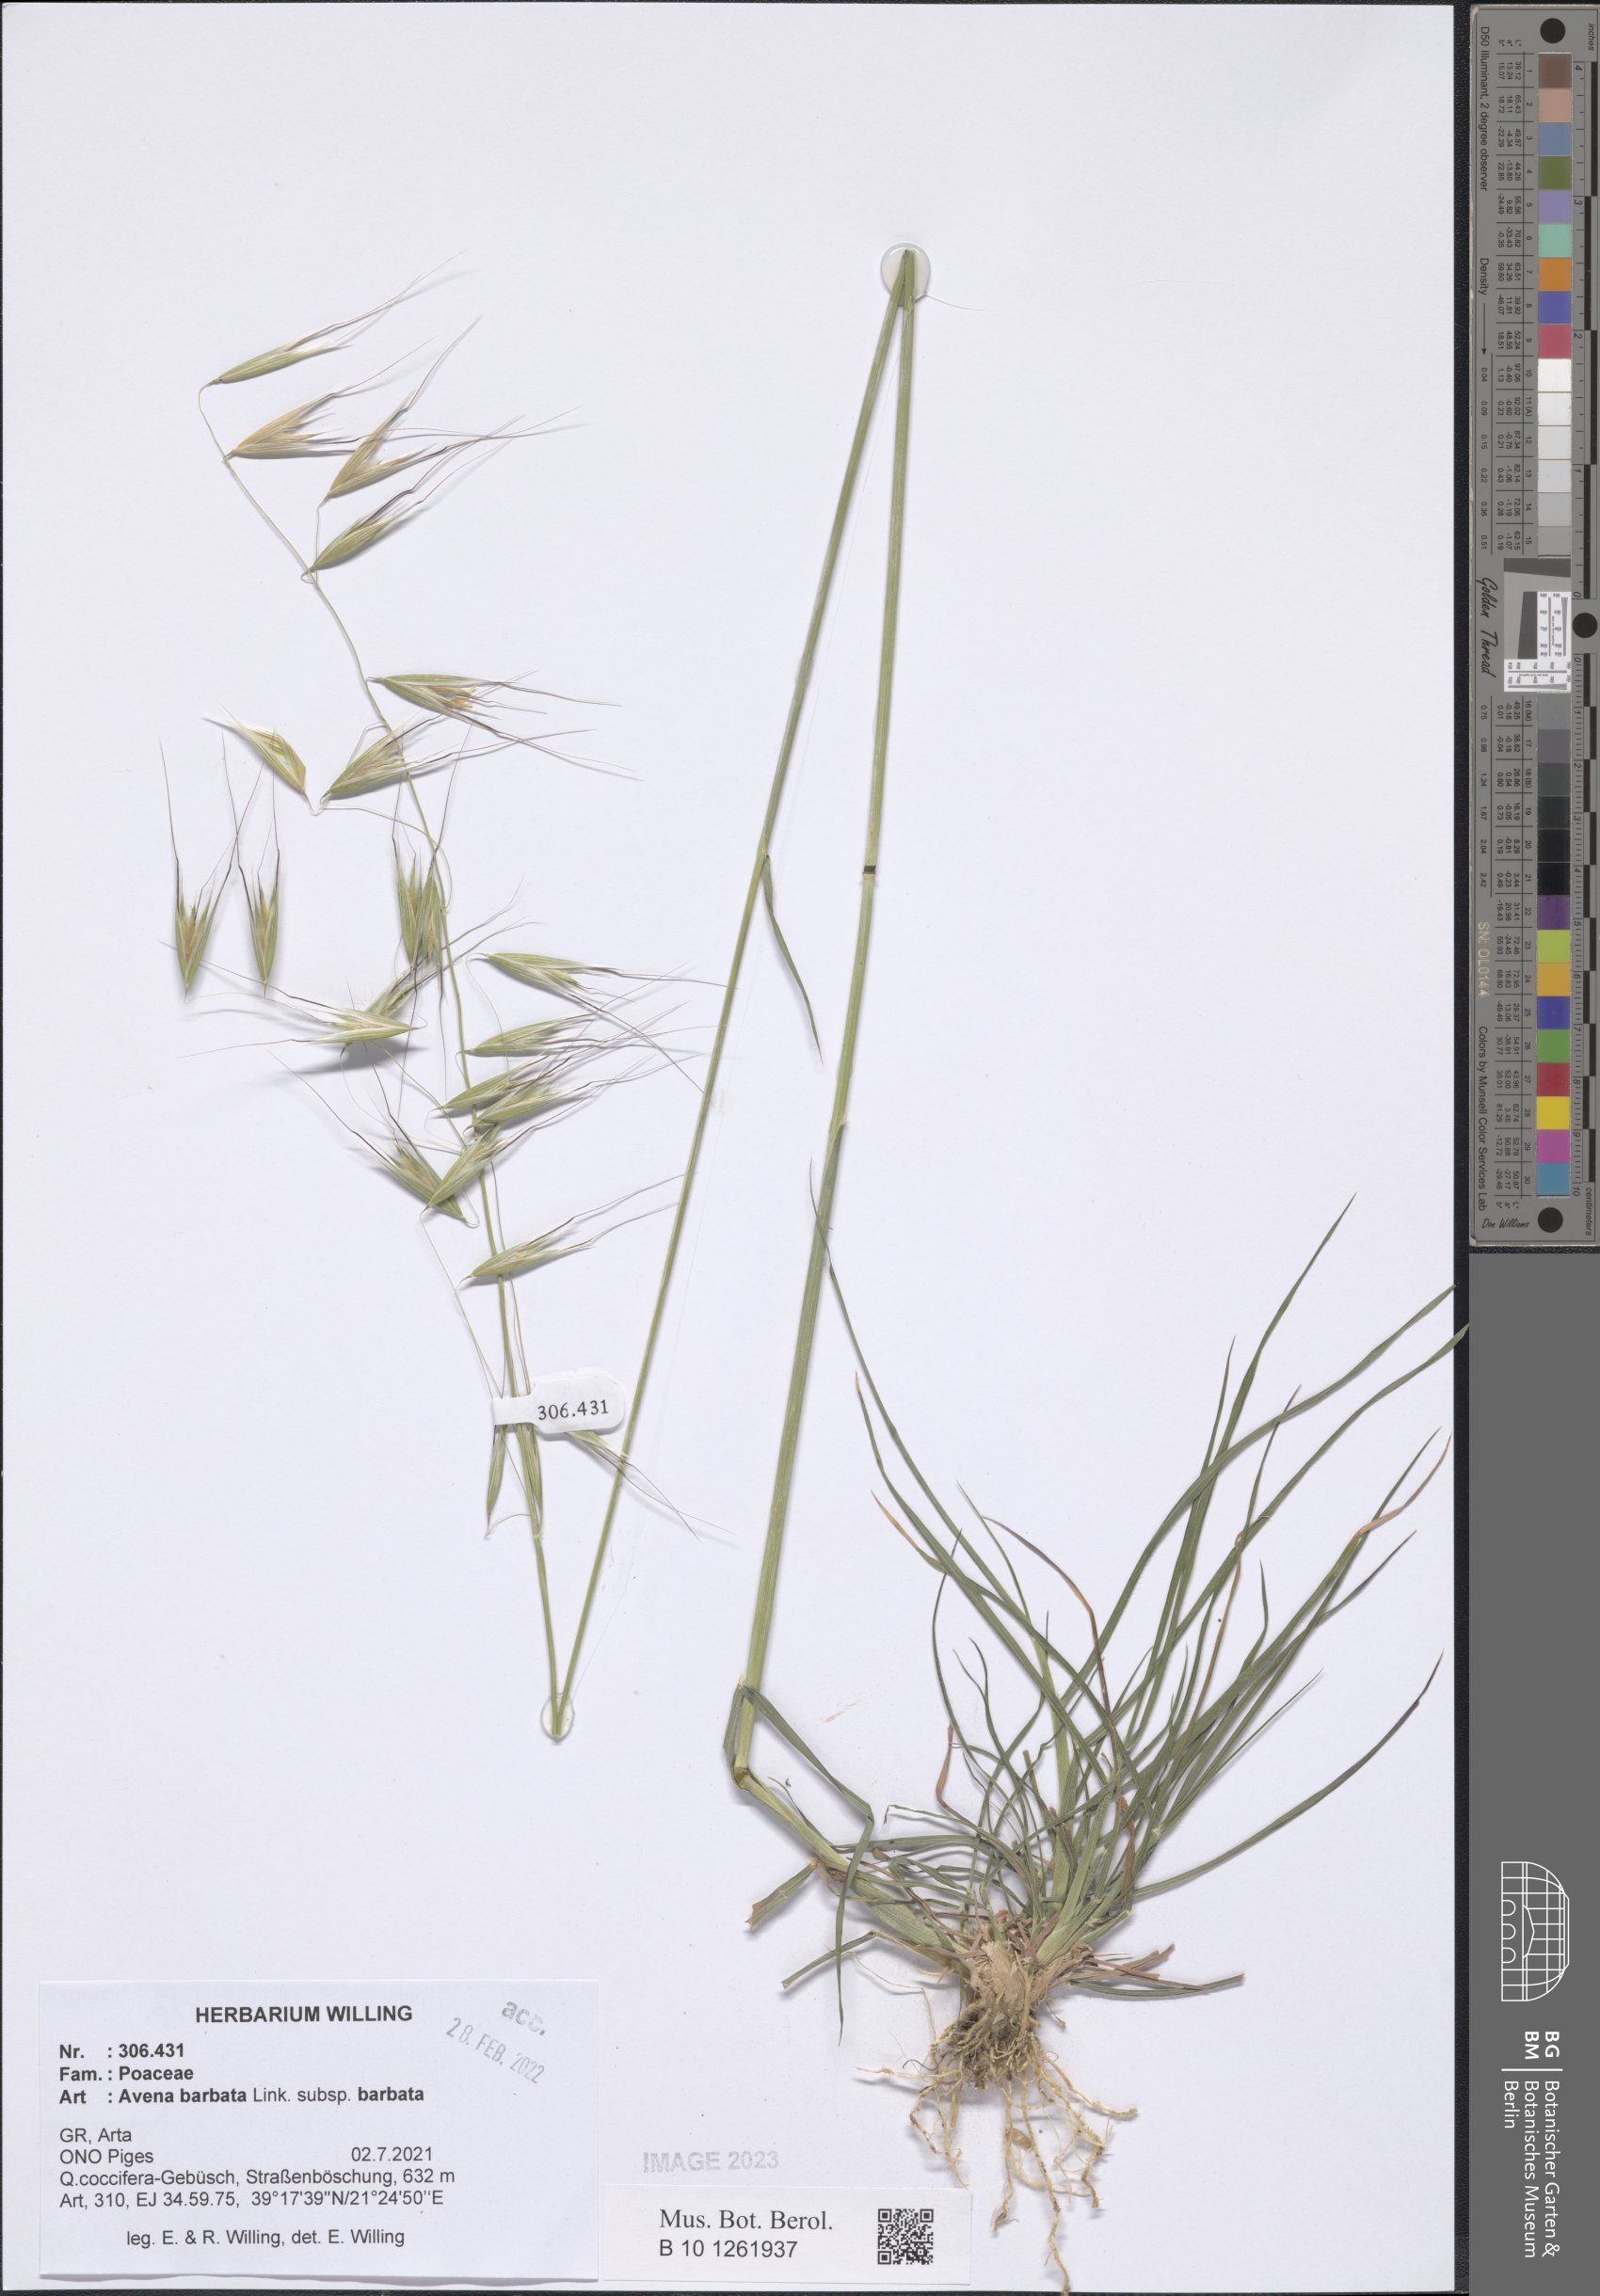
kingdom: Plantae
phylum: Tracheophyta
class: Liliopsida
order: Poales
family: Poaceae
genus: Avena
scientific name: Avena barbata
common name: Slender oat
